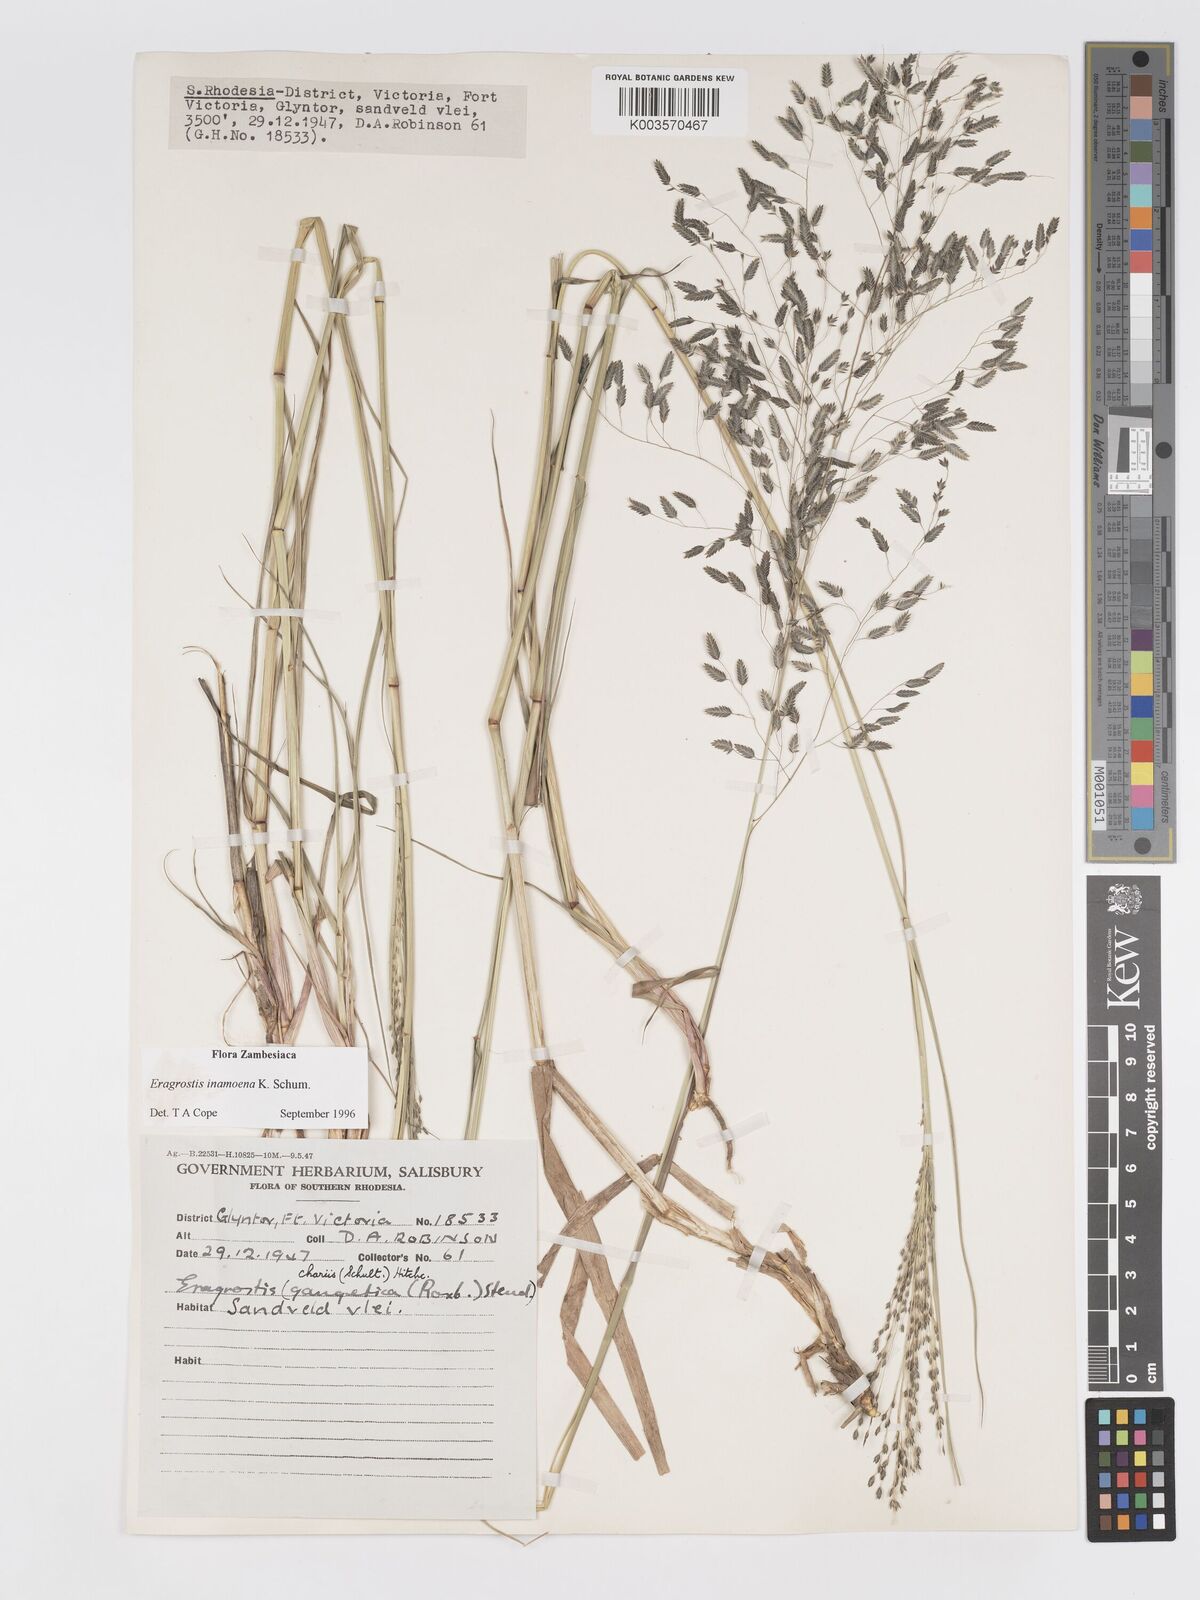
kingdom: Plantae
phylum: Tracheophyta
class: Liliopsida
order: Poales
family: Poaceae
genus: Eragrostis
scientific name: Eragrostis inamoena
